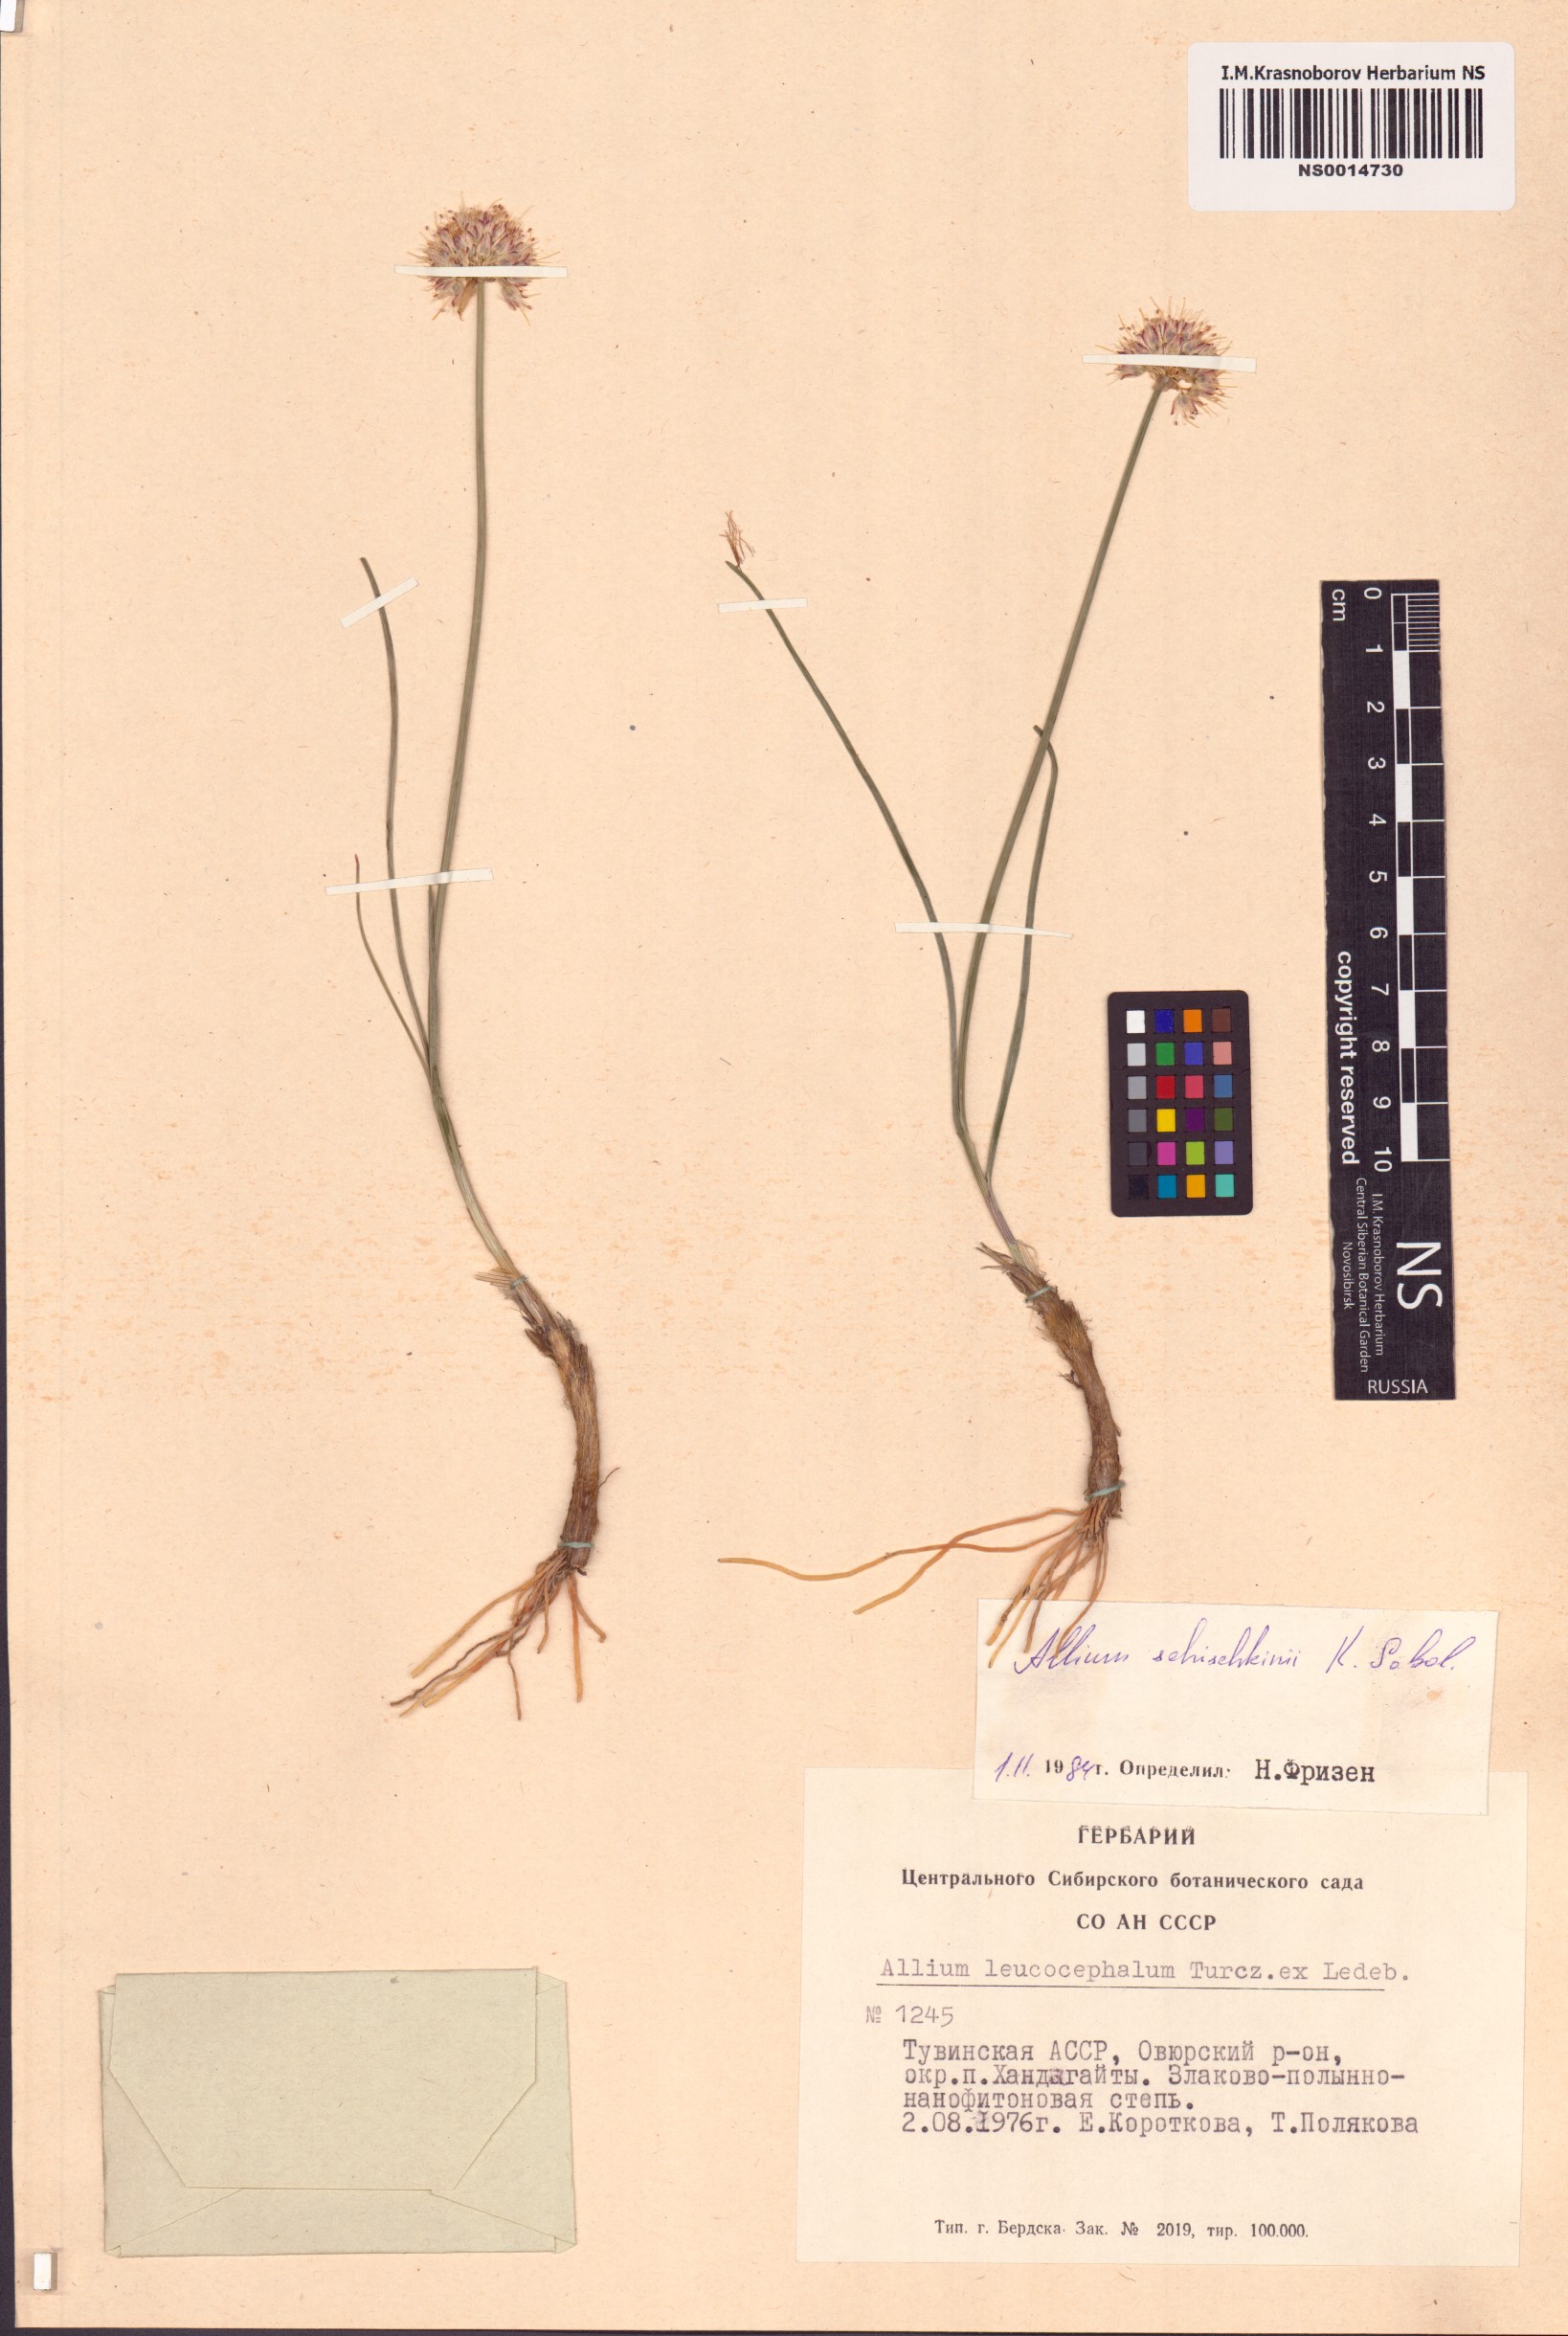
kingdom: Plantae
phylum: Tracheophyta
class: Liliopsida
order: Asparagales
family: Amaryllidaceae
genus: Allium
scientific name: Allium schischkinii
